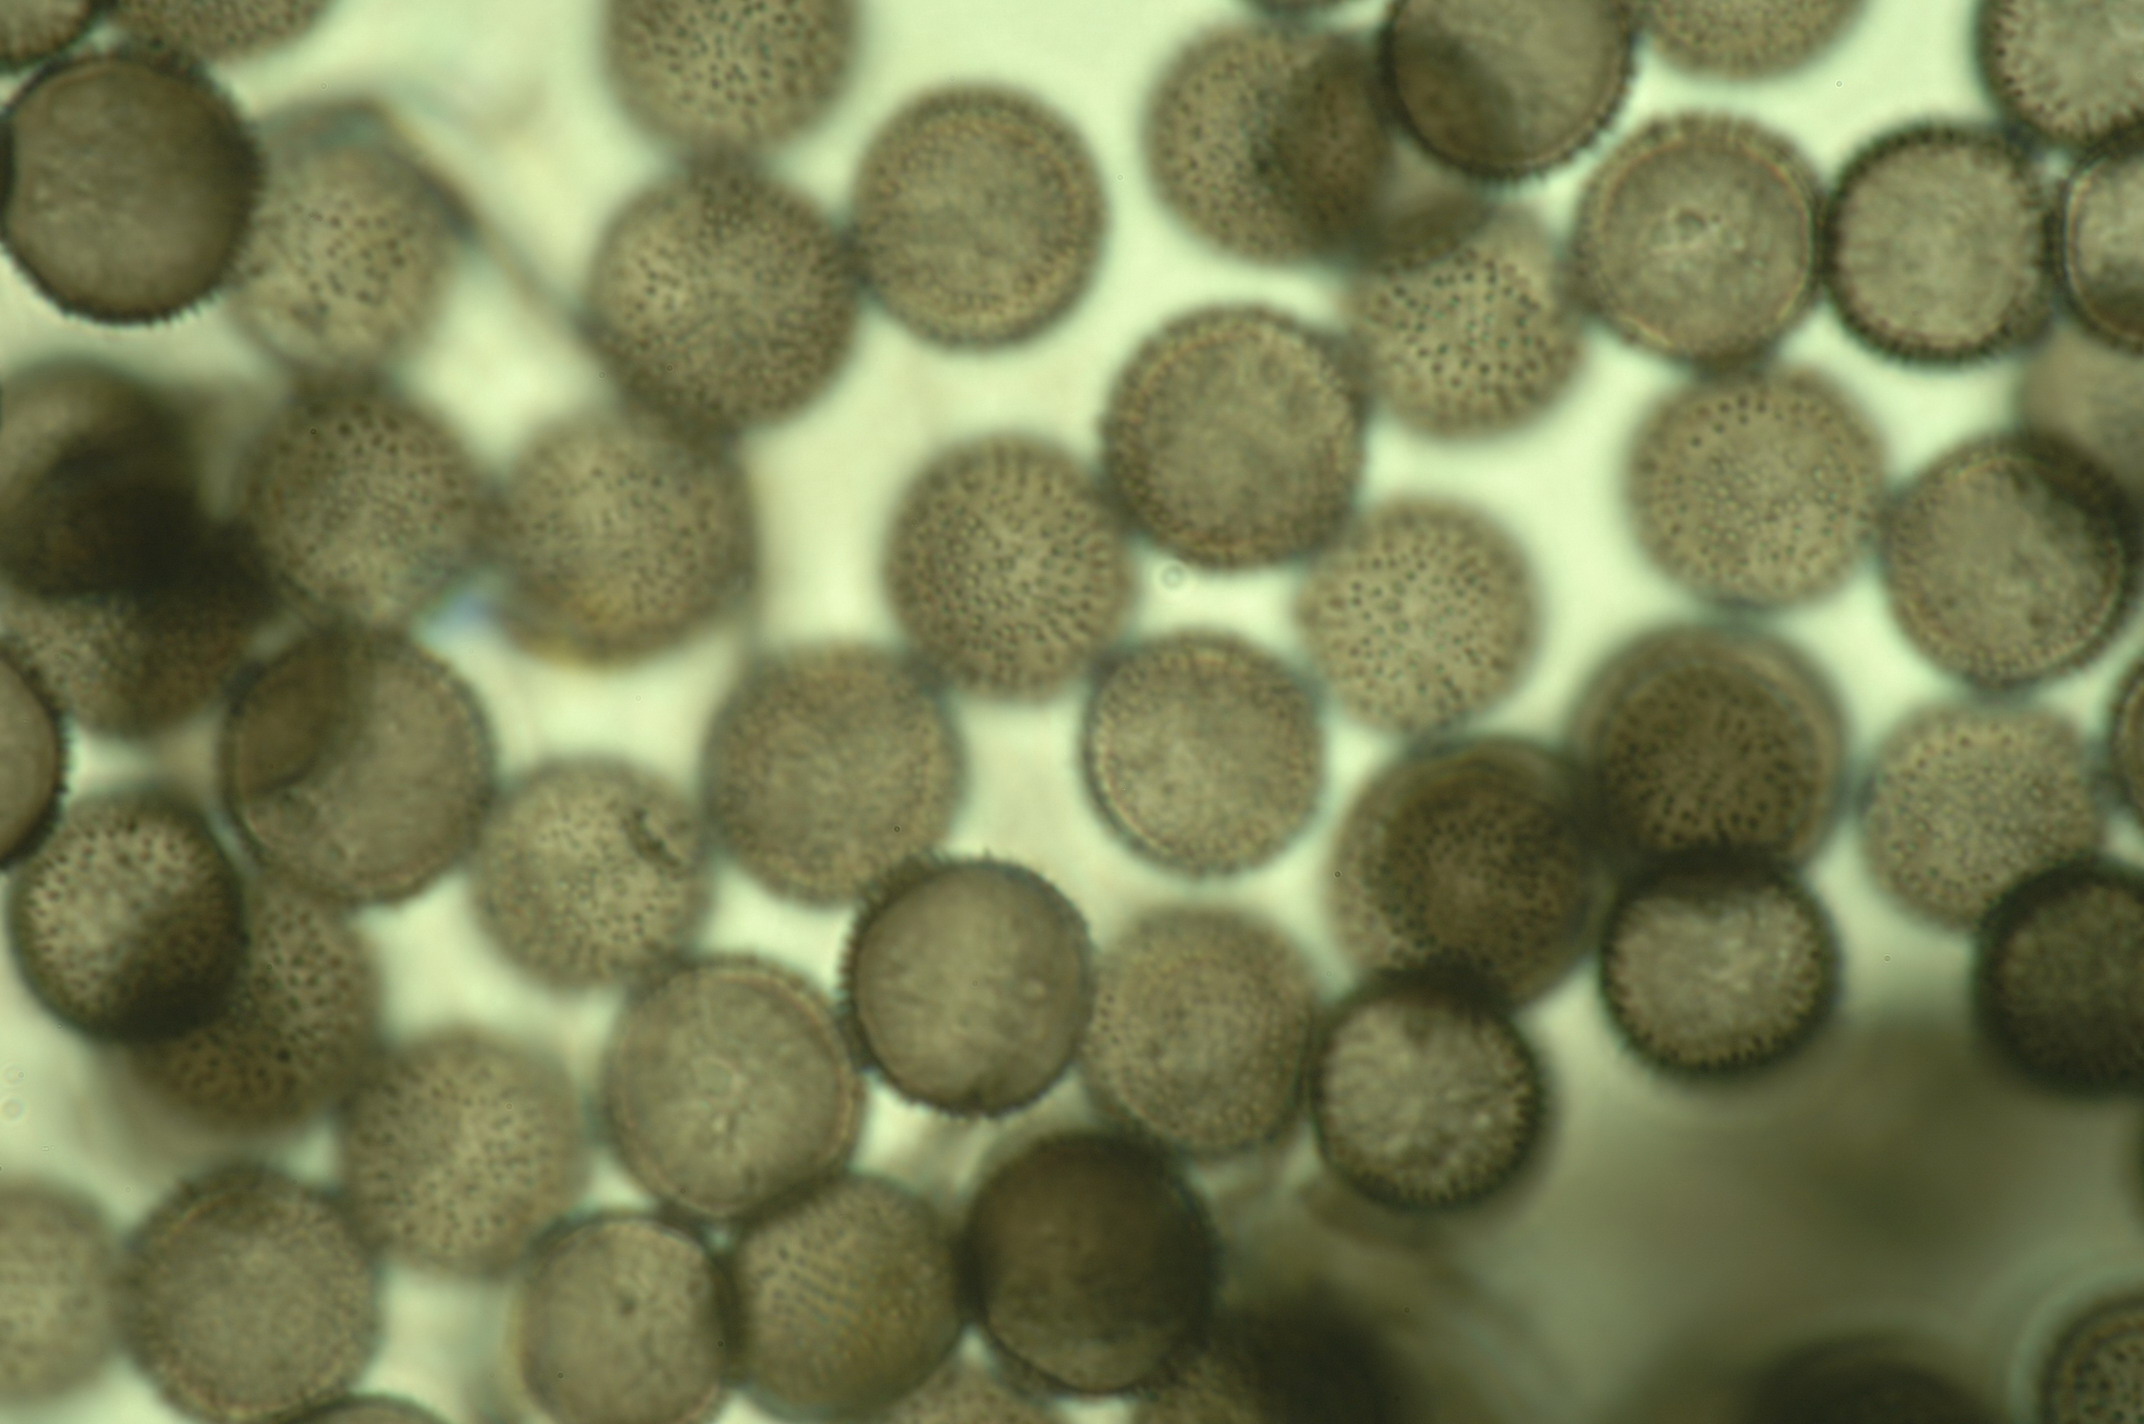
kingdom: Protozoa
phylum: Mycetozoa
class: Myxomycetes
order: Stemonitidales
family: Stemonitidaceae
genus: Lamproderma
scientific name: Lamproderma granulosum
